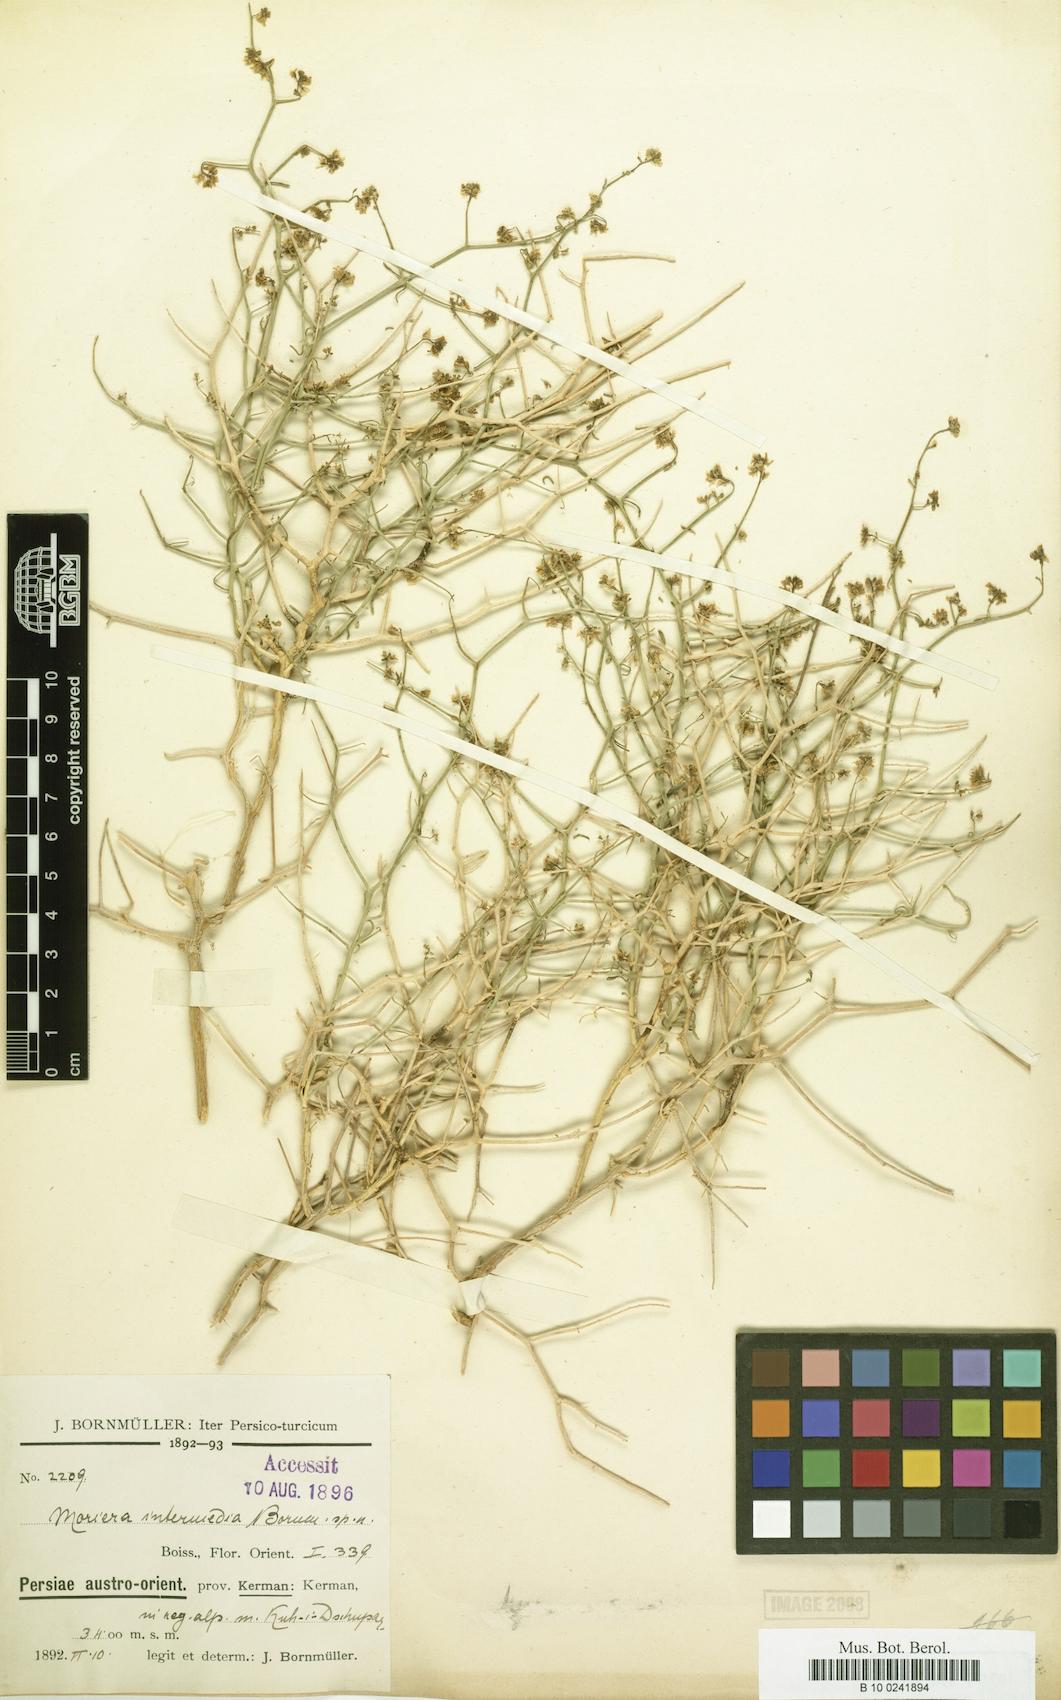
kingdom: Plantae
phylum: Tracheophyta
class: Magnoliopsida
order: Brassicales
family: Brassicaceae
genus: Moriera
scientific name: Moriera
